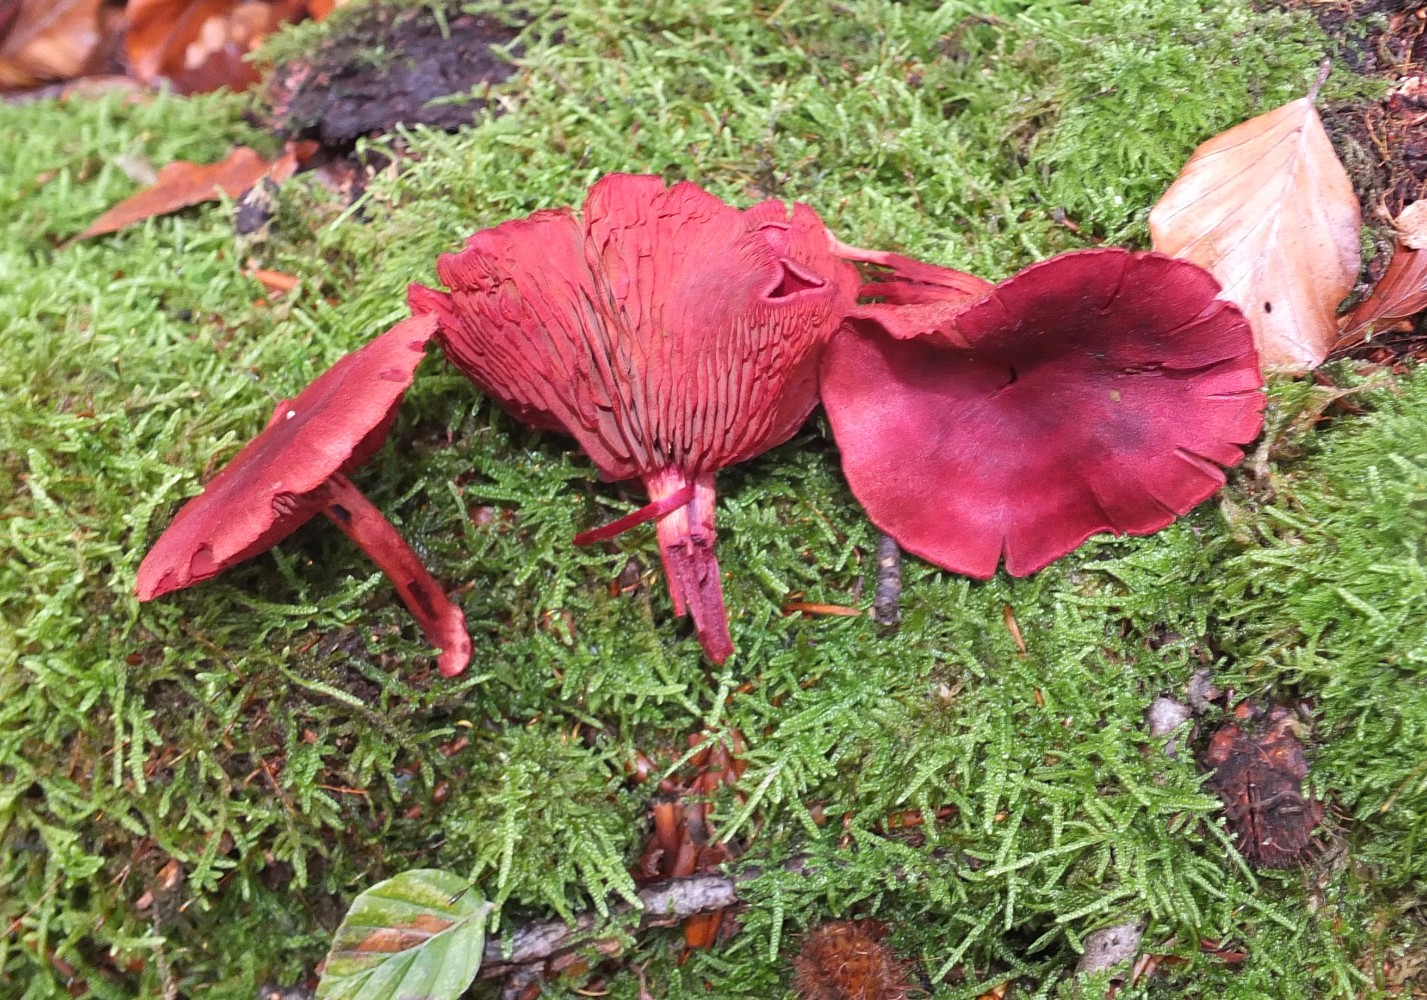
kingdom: Fungi
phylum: Basidiomycota
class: Agaricomycetes
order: Agaricales
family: Cortinariaceae
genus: Cortinarius
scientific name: Cortinarius sanguineus
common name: blodrød slørhat
